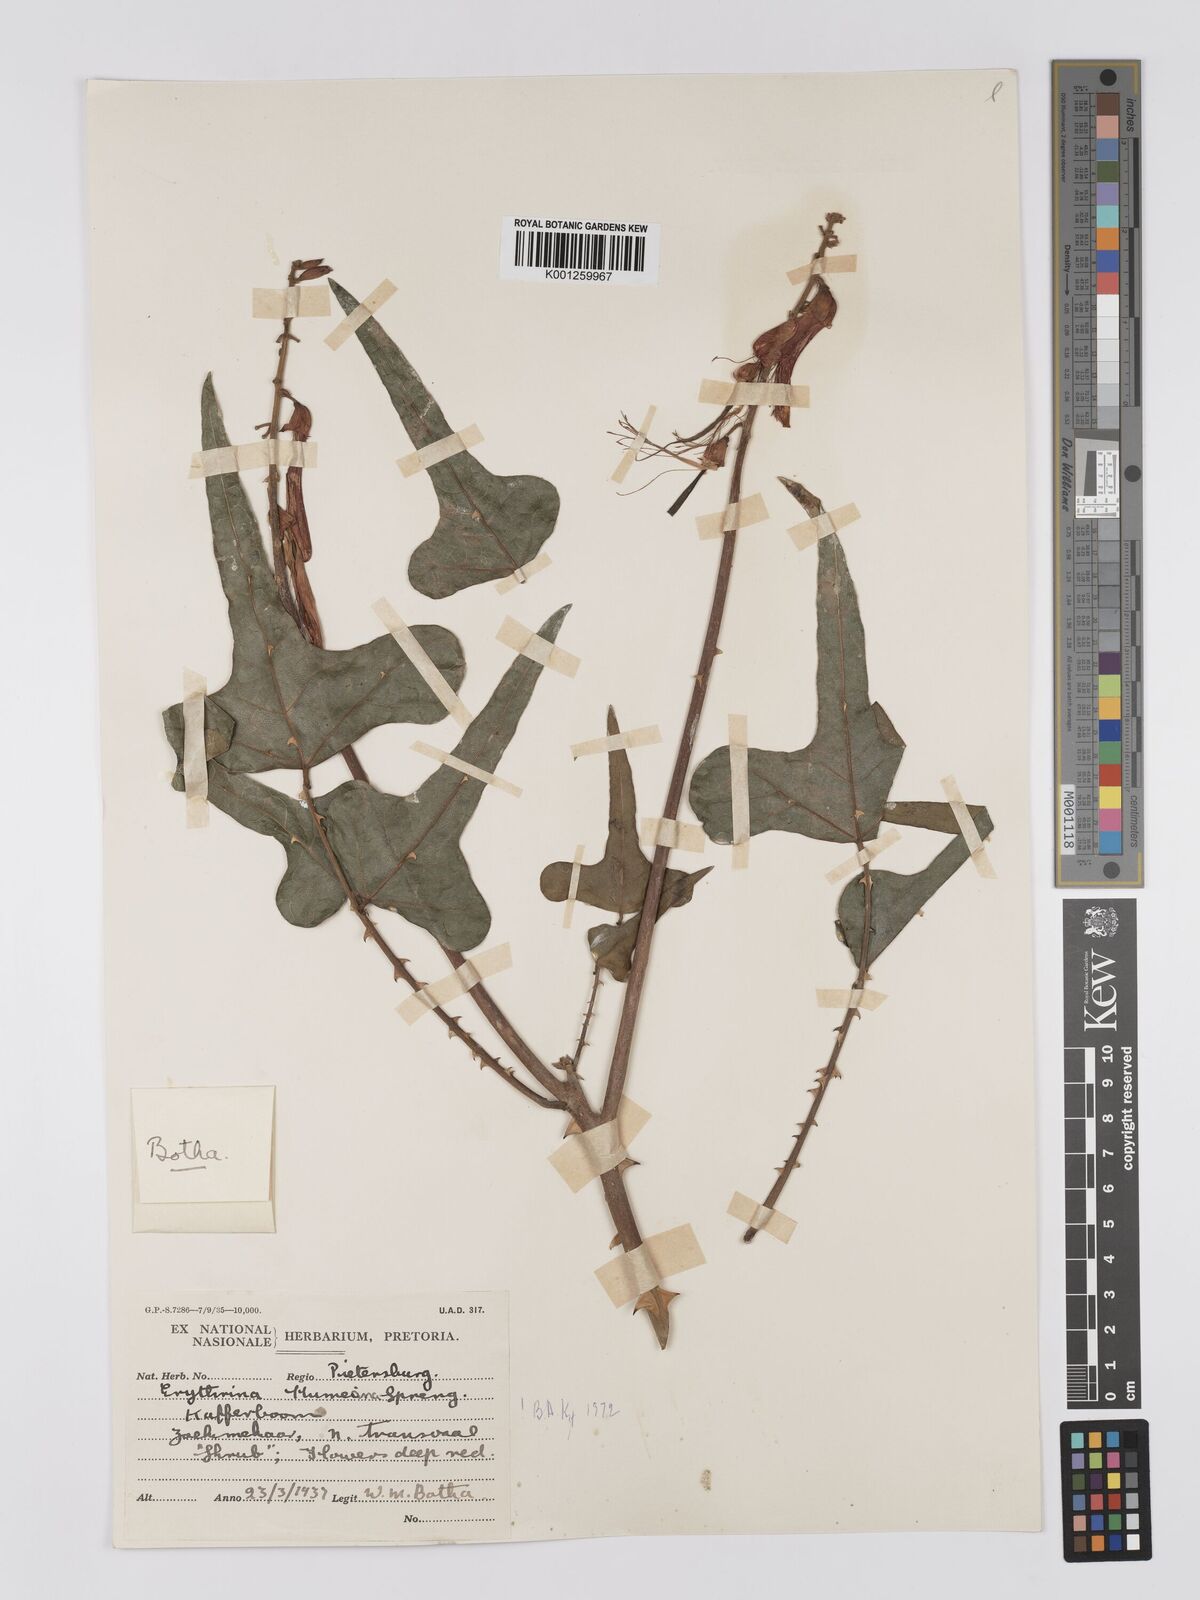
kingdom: Plantae
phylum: Tracheophyta
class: Magnoliopsida
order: Fabales
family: Fabaceae
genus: Erythrina
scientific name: Erythrina humeana
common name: Dwarf coral tree
